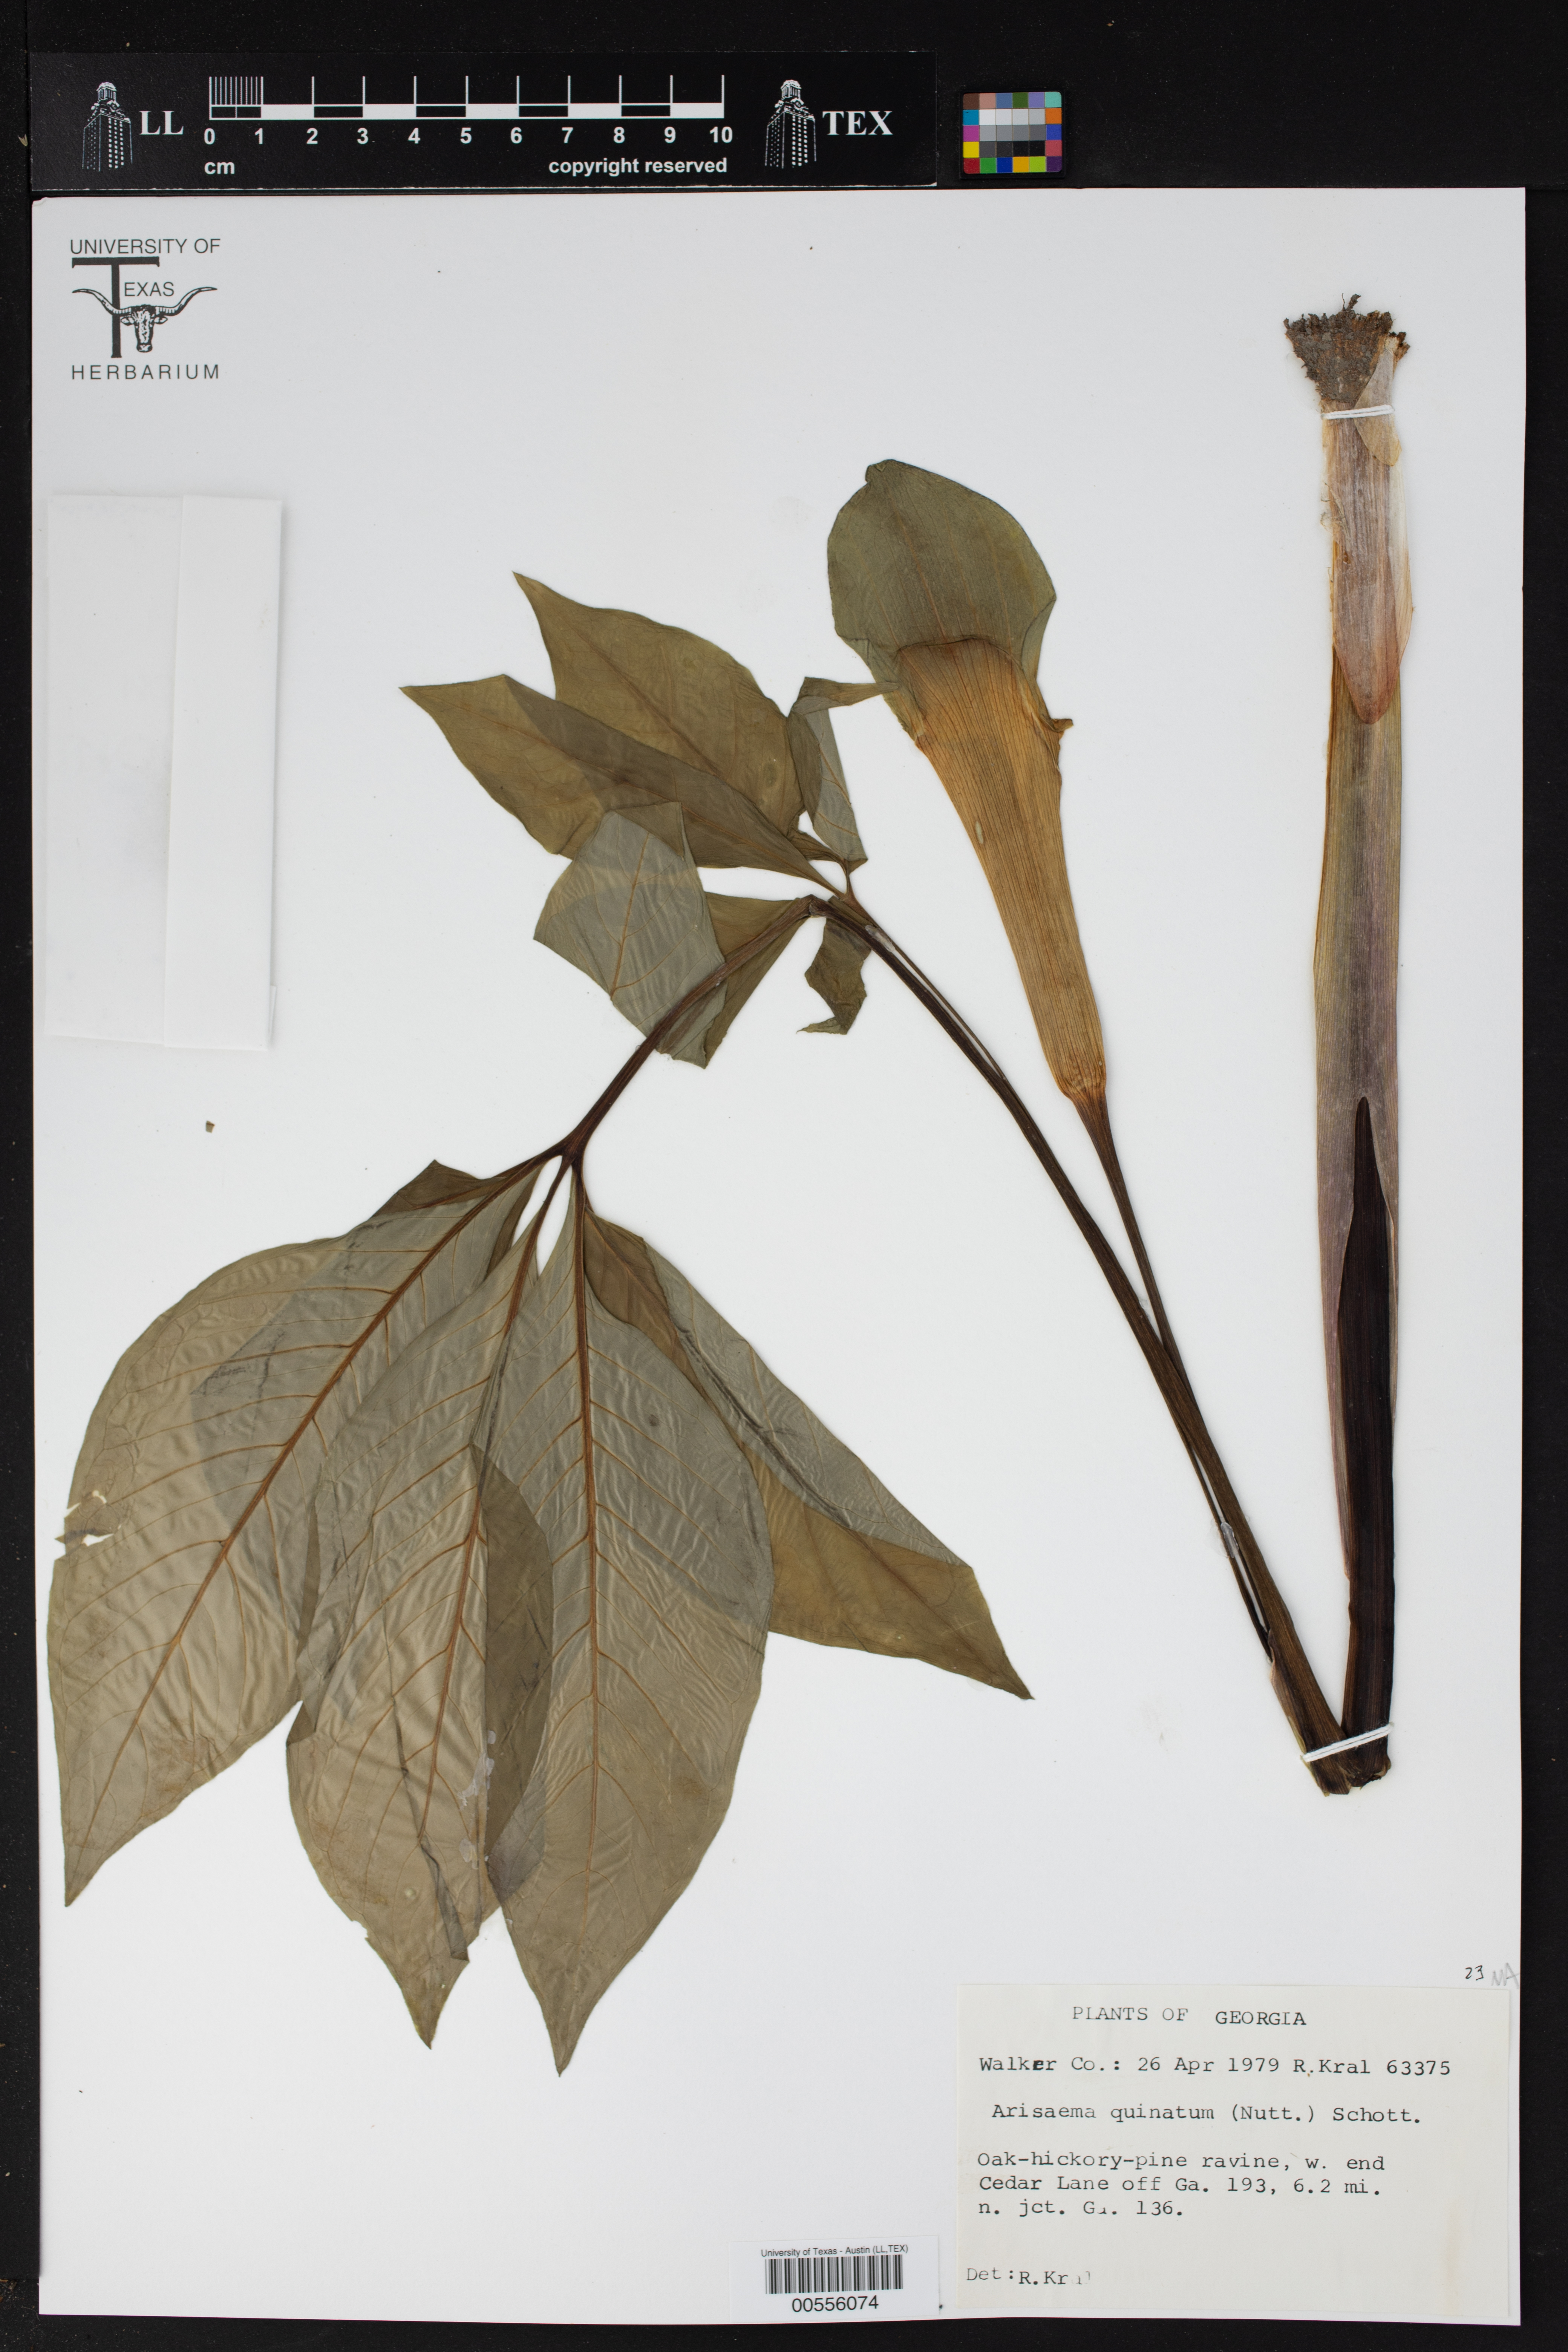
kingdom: Plantae
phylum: Tracheophyta
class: Liliopsida
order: Alismatales
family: Araceae
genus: Arisaema
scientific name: Arisaema quinatum
